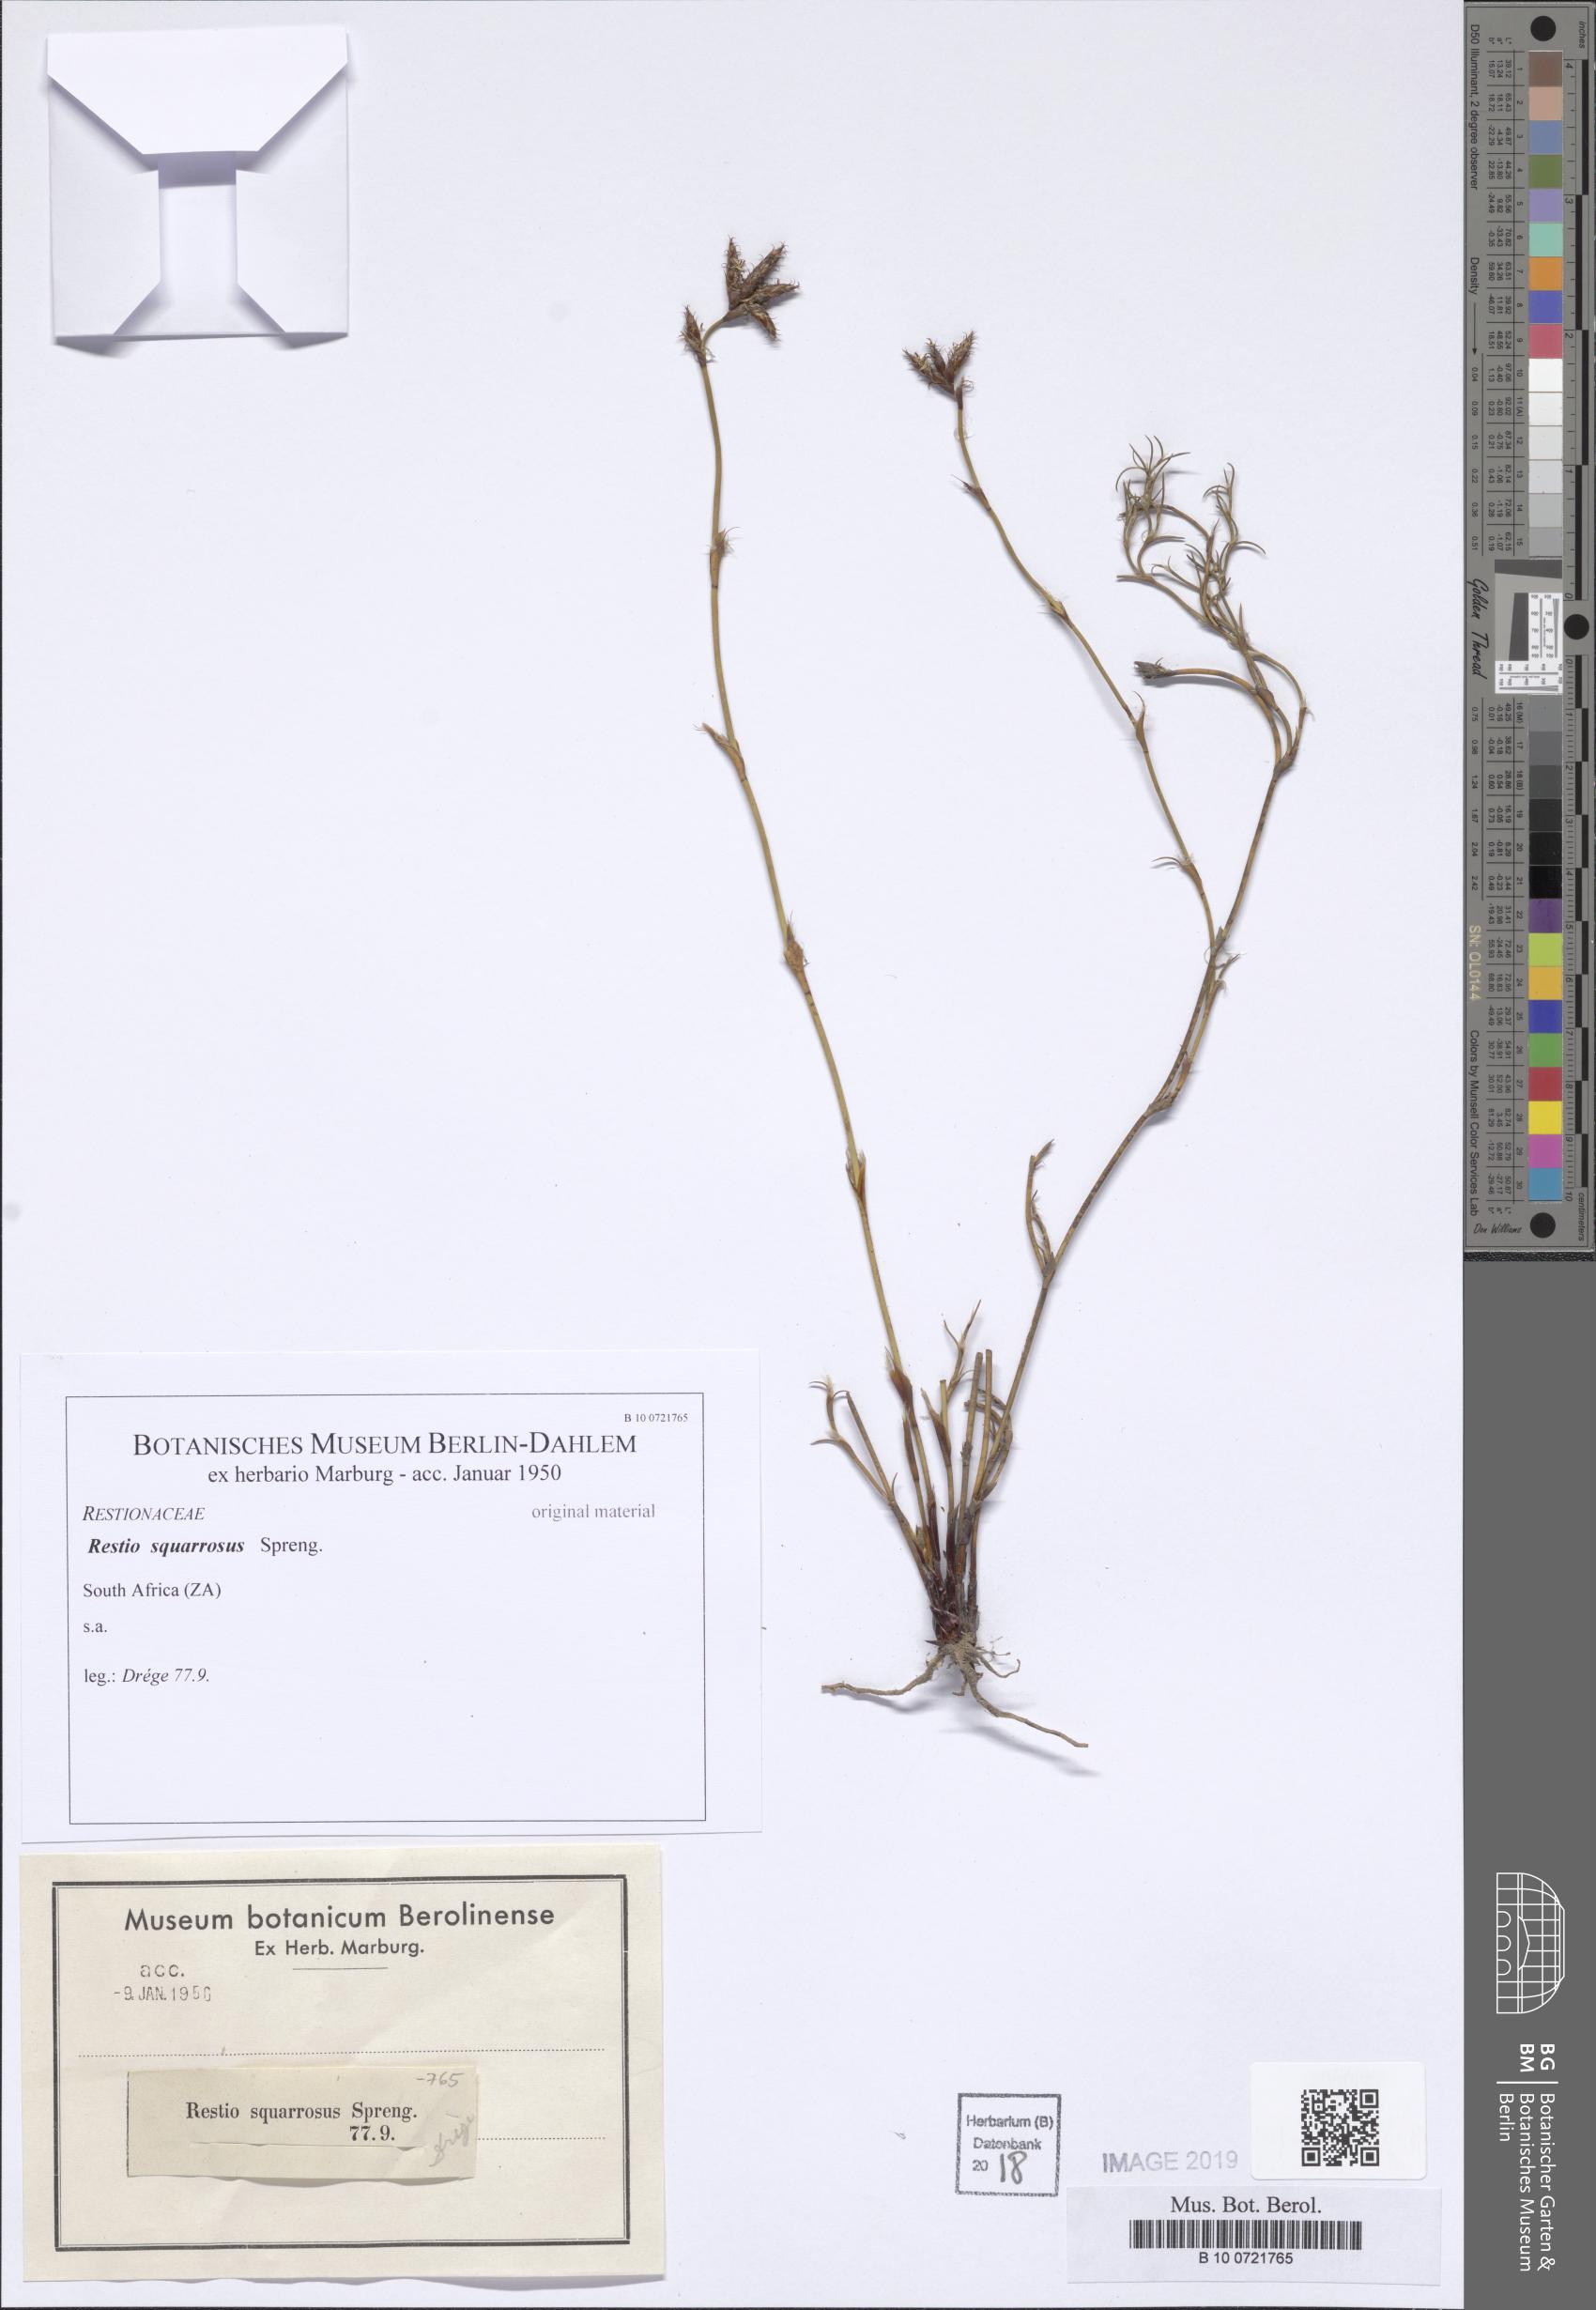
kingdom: Plantae
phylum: Tracheophyta
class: Liliopsida
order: Poales
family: Restionaceae
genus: Restio
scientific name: Restio capensis
